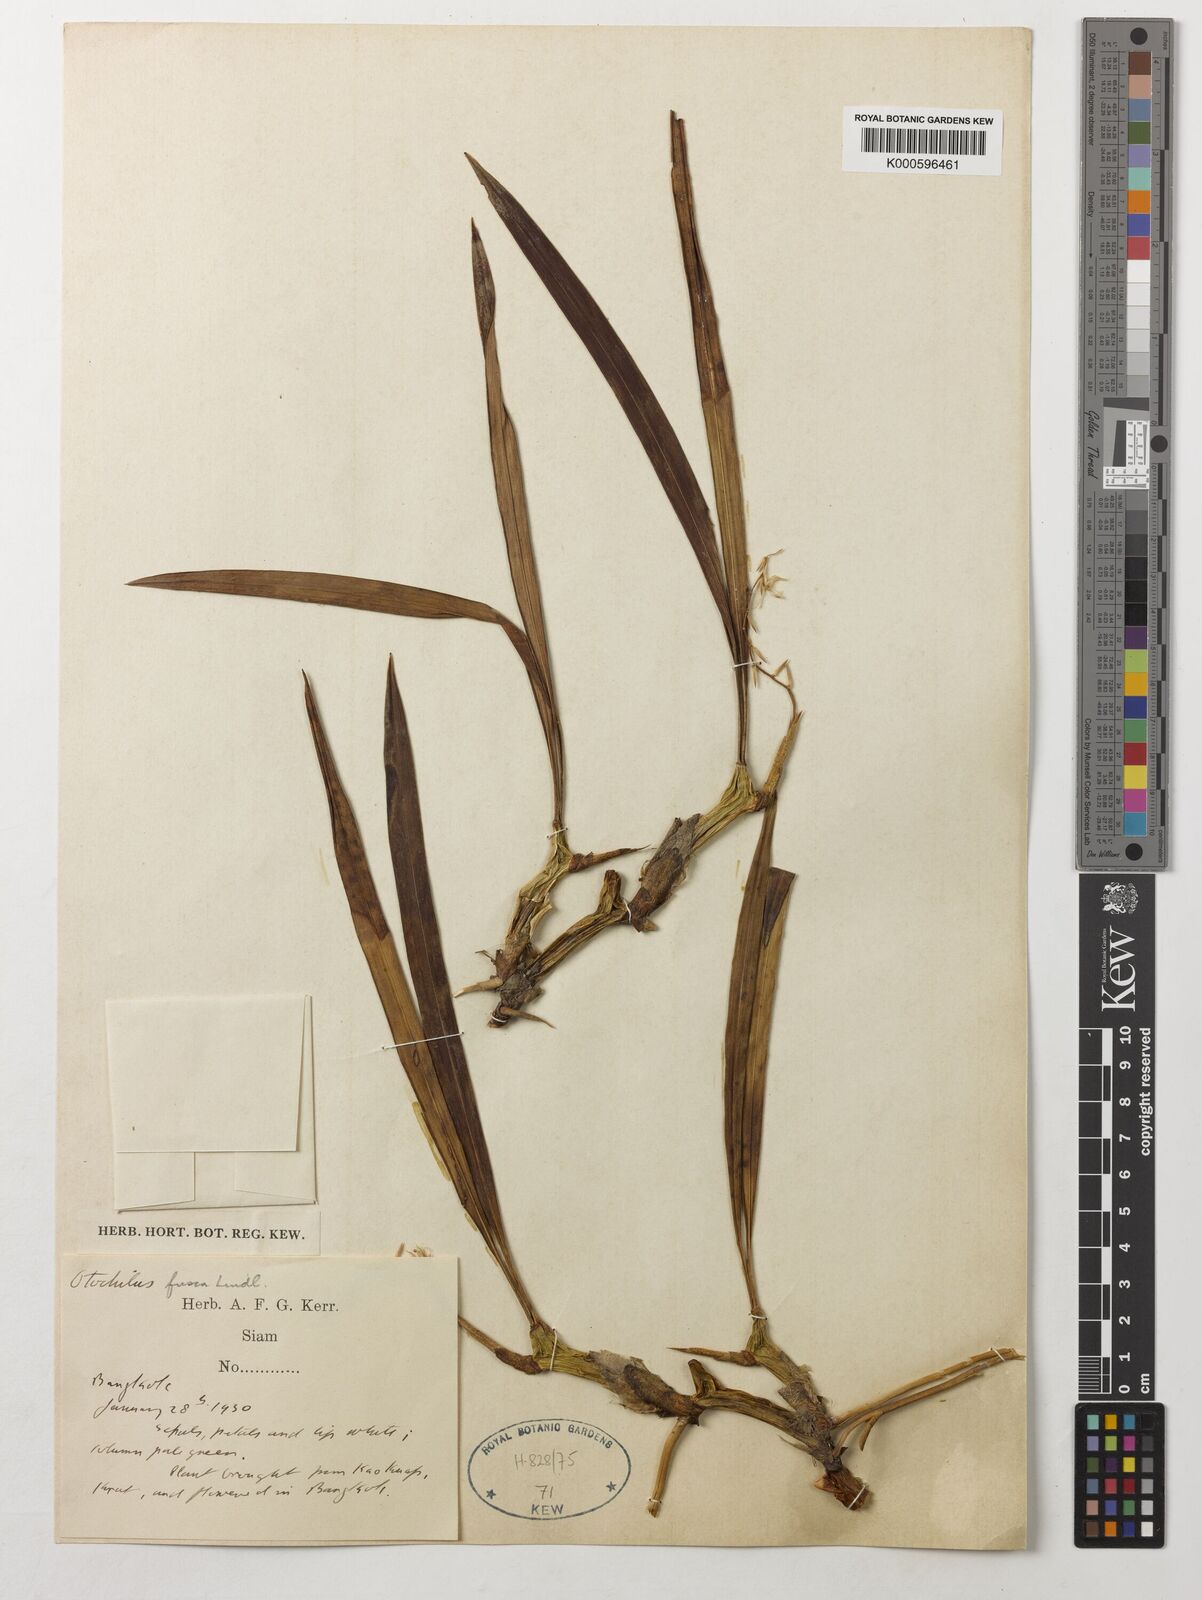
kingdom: Plantae
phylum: Tracheophyta
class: Liliopsida
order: Asparagales
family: Orchidaceae
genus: Coelogyne
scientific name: Coelogyne fusca
